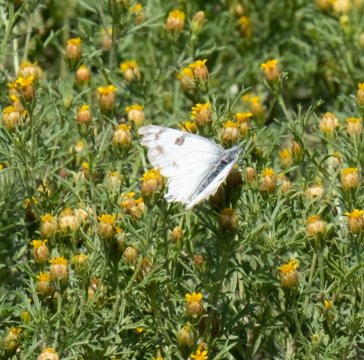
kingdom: Animalia
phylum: Arthropoda
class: Insecta
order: Lepidoptera
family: Pieridae
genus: Pontia
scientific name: Pontia protodice
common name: Checkered White
